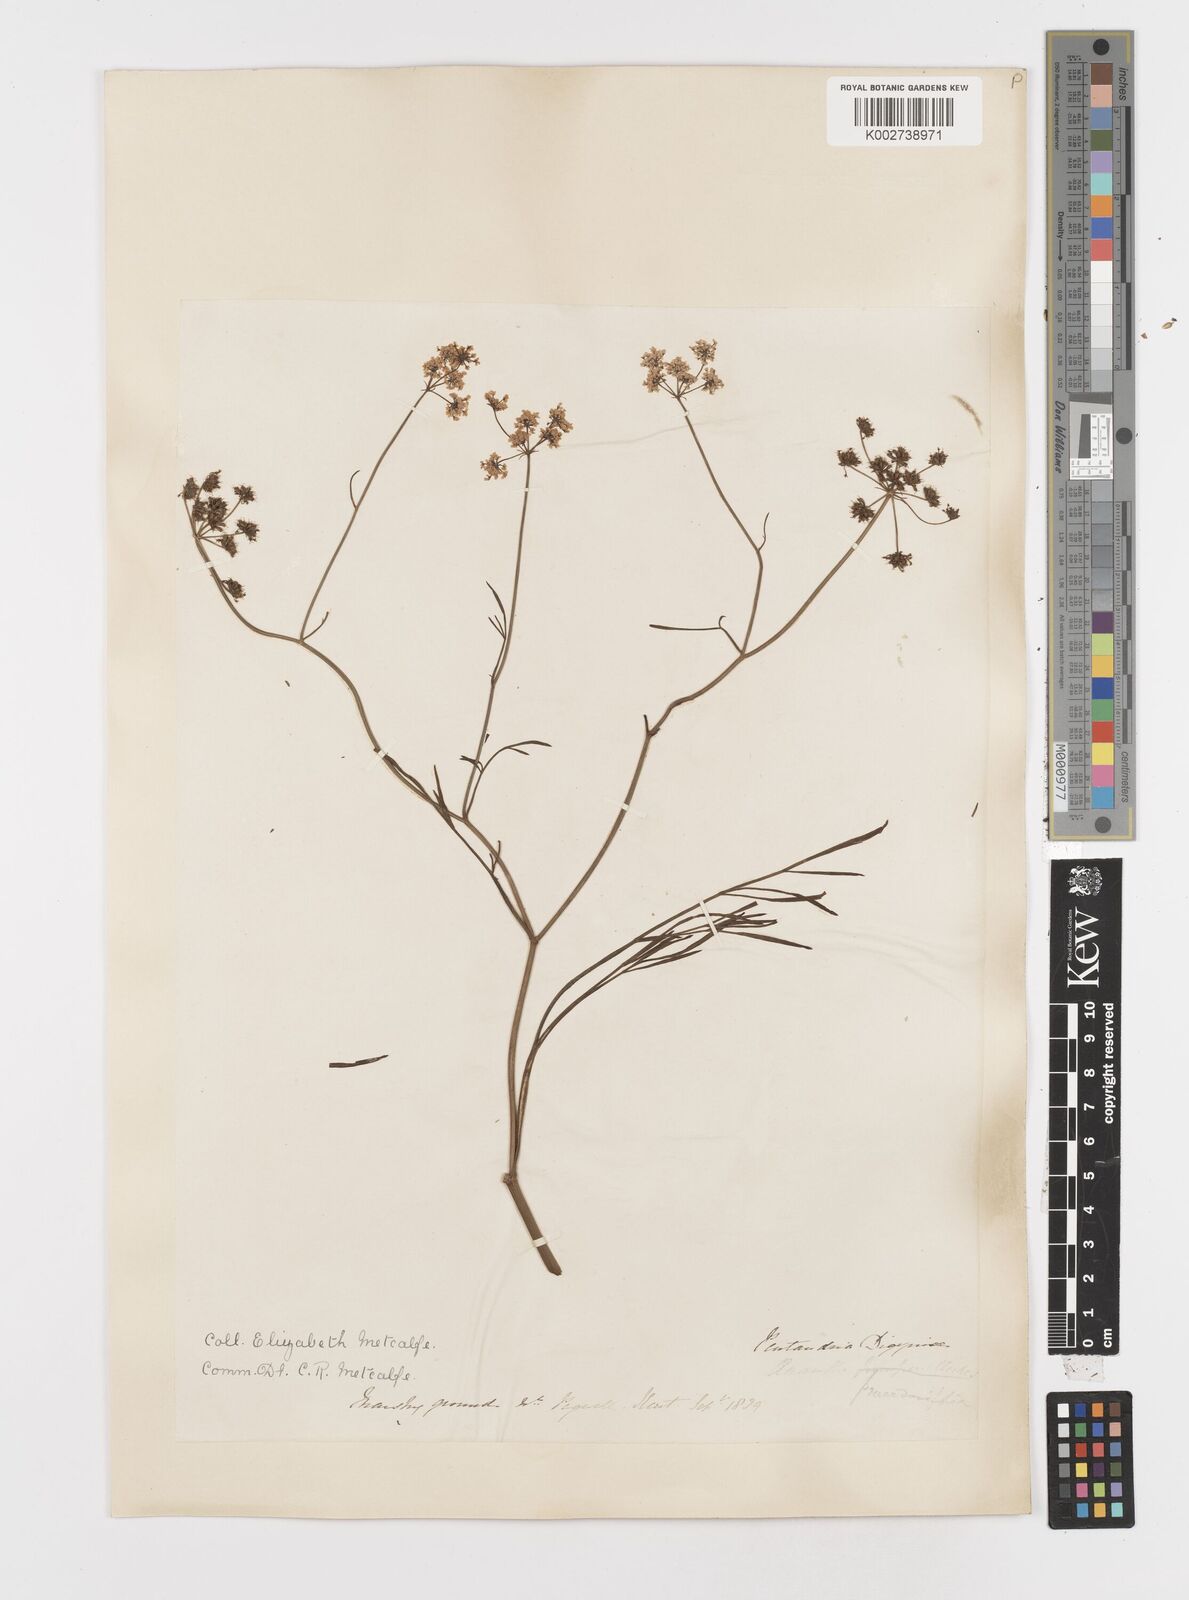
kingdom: Plantae
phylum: Tracheophyta
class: Magnoliopsida
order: Apiales
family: Apiaceae
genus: Oenanthe
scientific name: Oenanthe lachenalii
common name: Parsley water-dropwort
